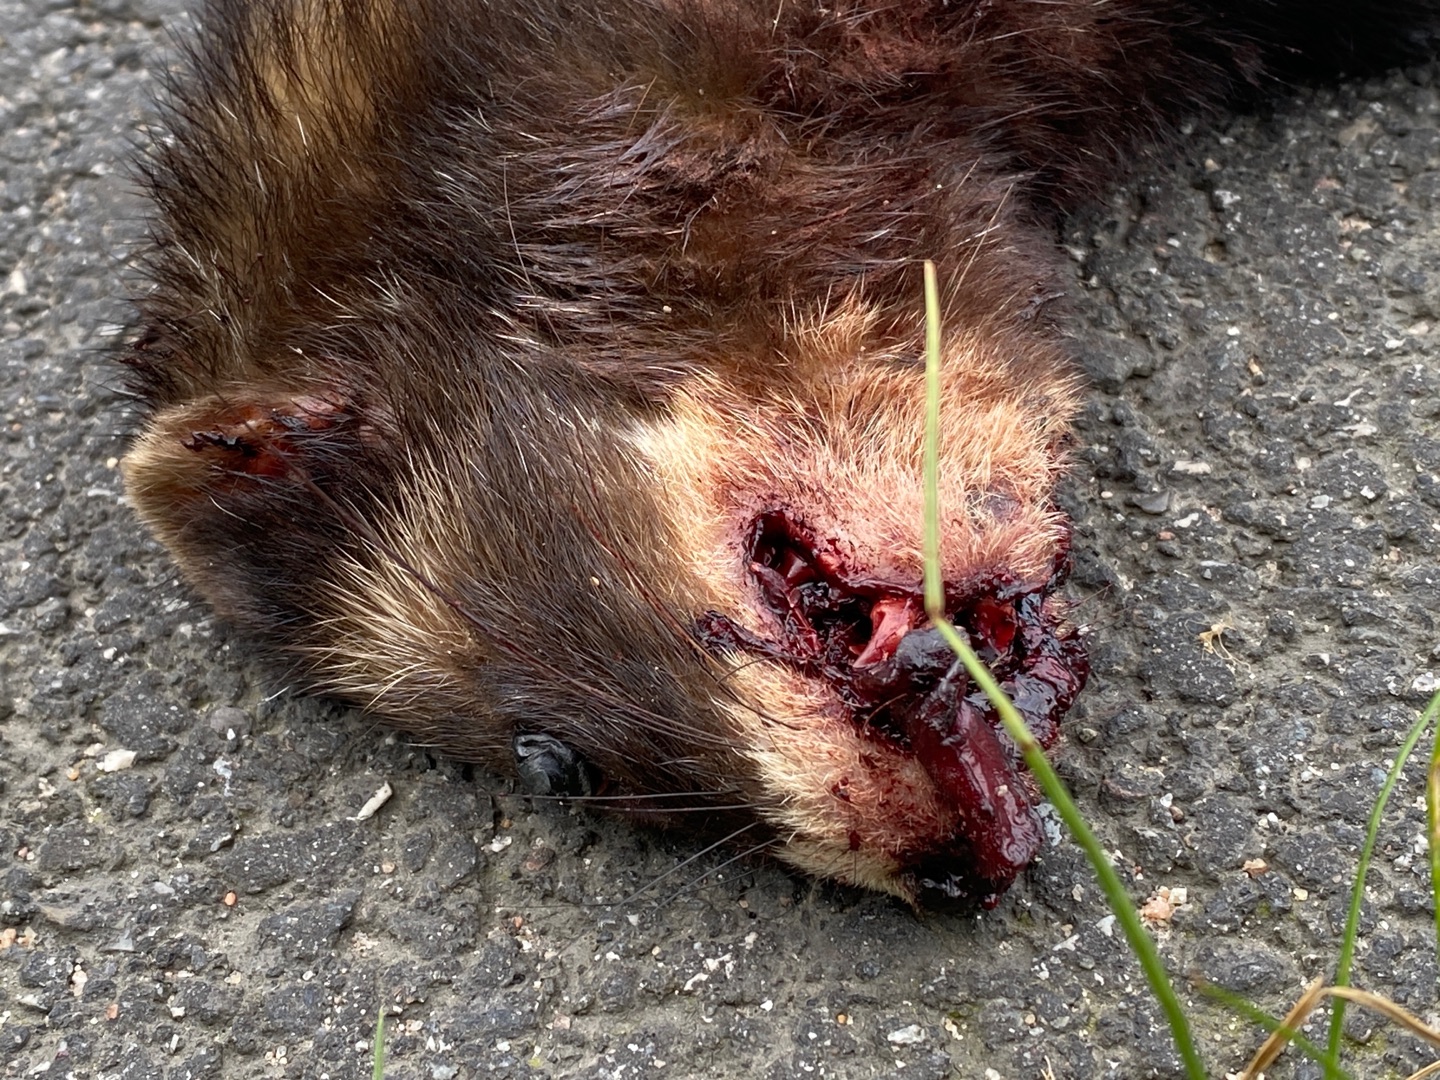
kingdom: Animalia
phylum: Chordata
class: Mammalia
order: Carnivora
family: Mustelidae
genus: Mustela
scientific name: Mustela putorius
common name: Ilder
